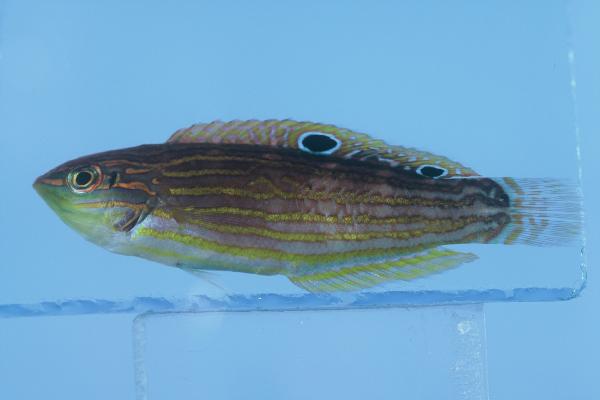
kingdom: Animalia
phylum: Chordata
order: Perciformes
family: Labridae
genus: Halichoeres
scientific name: Halichoeres cosmetus
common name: Adorned wrasse
